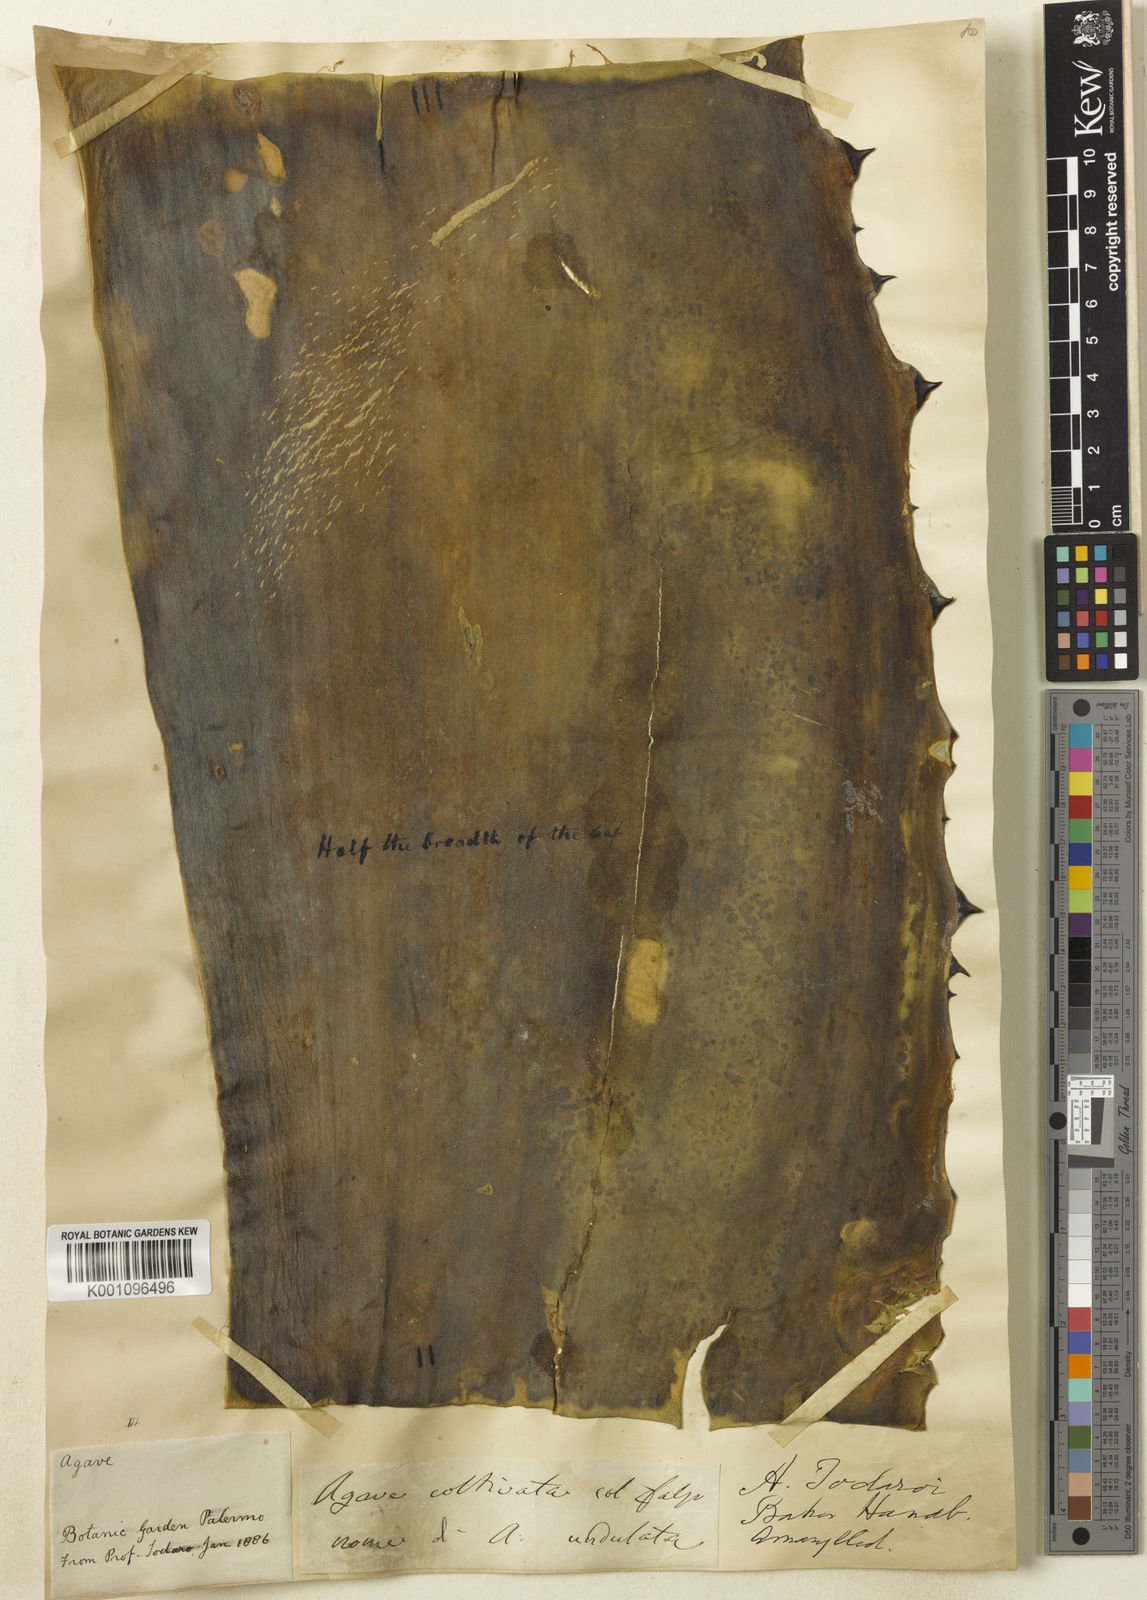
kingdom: Plantae
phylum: Tracheophyta
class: Liliopsida
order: Asparagales
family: Asparagaceae
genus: Agave
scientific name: Agave marmorata
